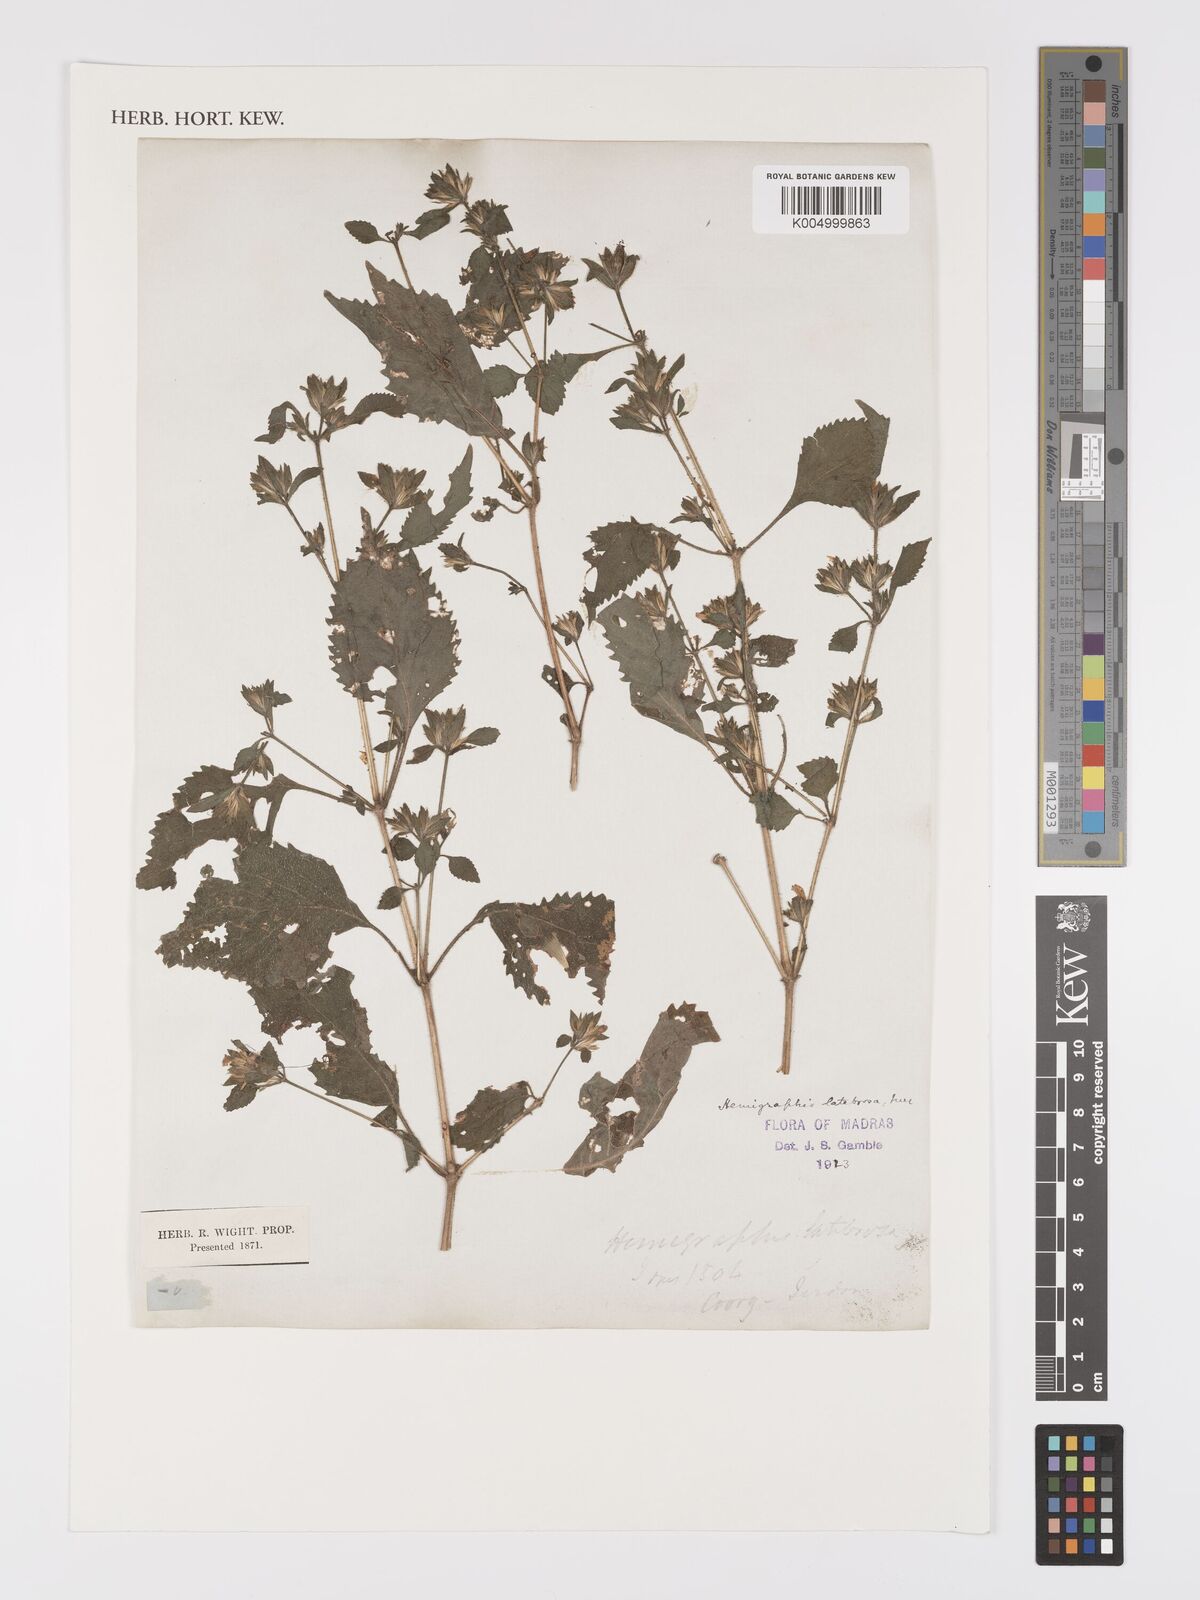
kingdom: Plantae
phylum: Tracheophyta
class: Magnoliopsida
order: Lamiales
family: Acanthaceae
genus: Strobilanthes
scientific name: Strobilanthes pavala
